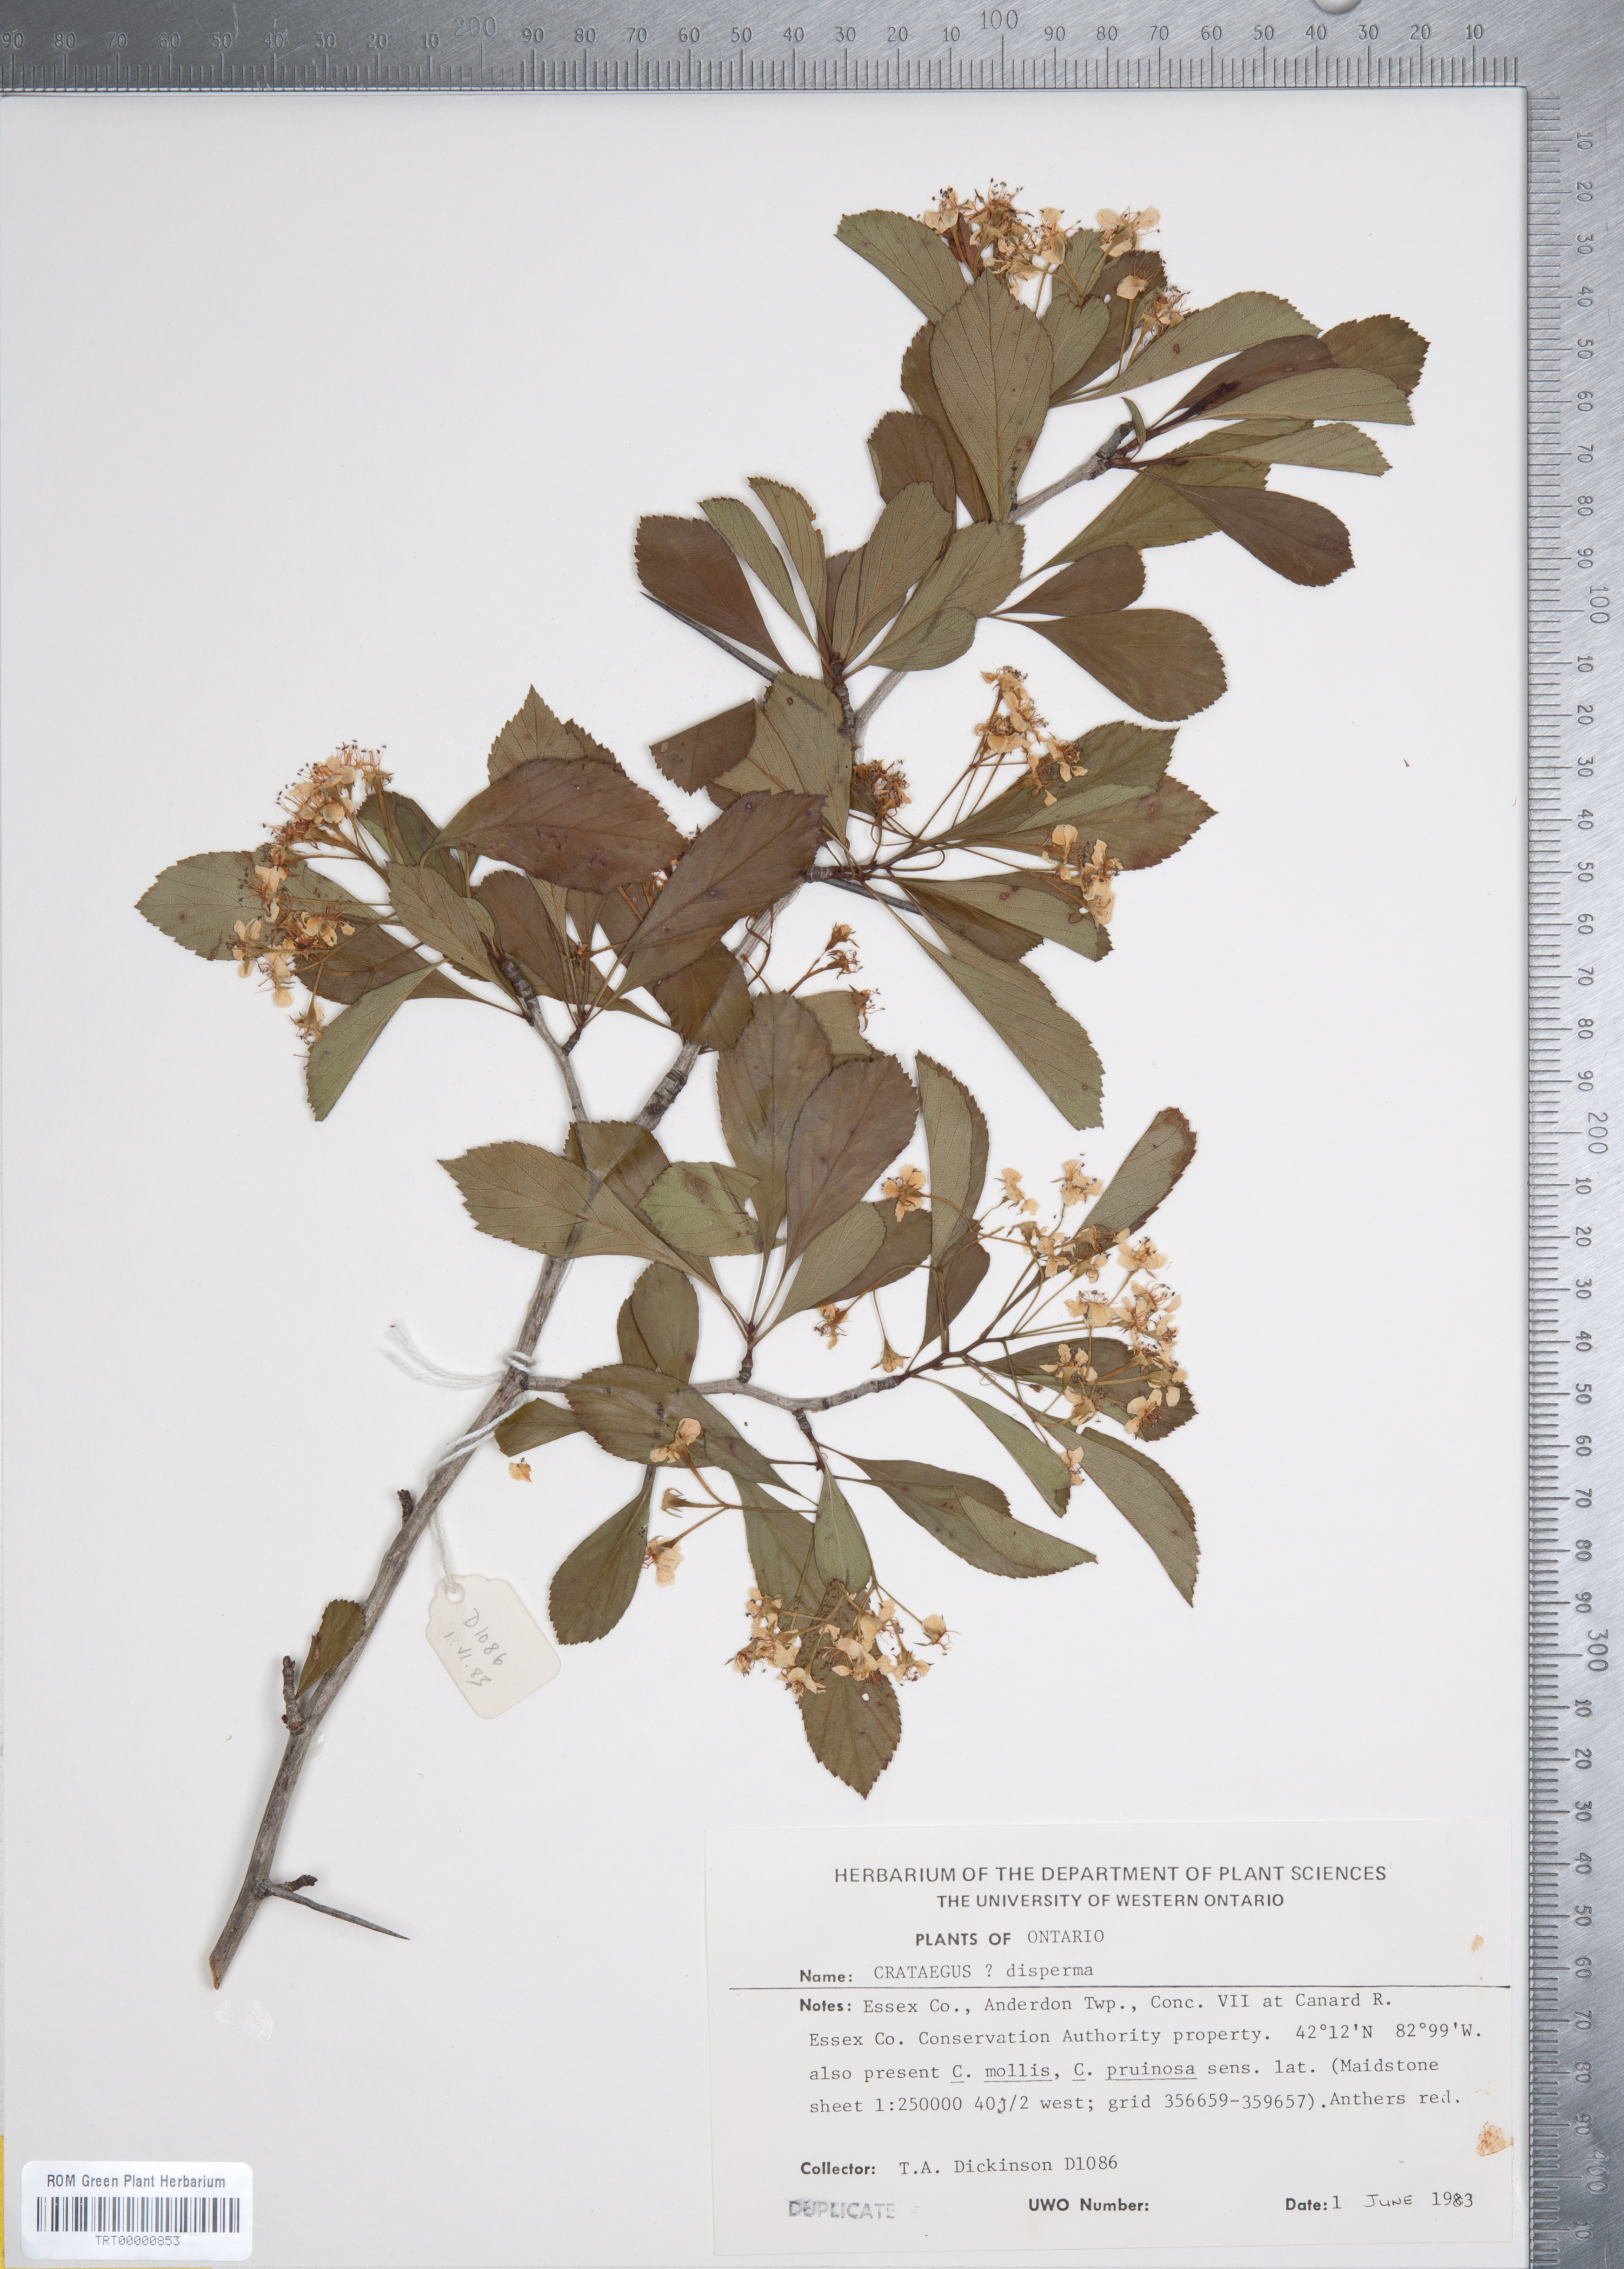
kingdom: Plantae
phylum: Tracheophyta
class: Magnoliopsida
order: Rosales
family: Rosaceae
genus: Crataegus
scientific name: Crataegus disperma
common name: Spreading hawthorn
